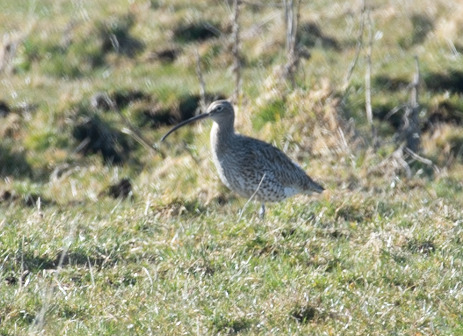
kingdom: Animalia
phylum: Chordata
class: Aves
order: Charadriiformes
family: Scolopacidae
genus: Numenius
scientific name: Numenius arquata
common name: Storspove
